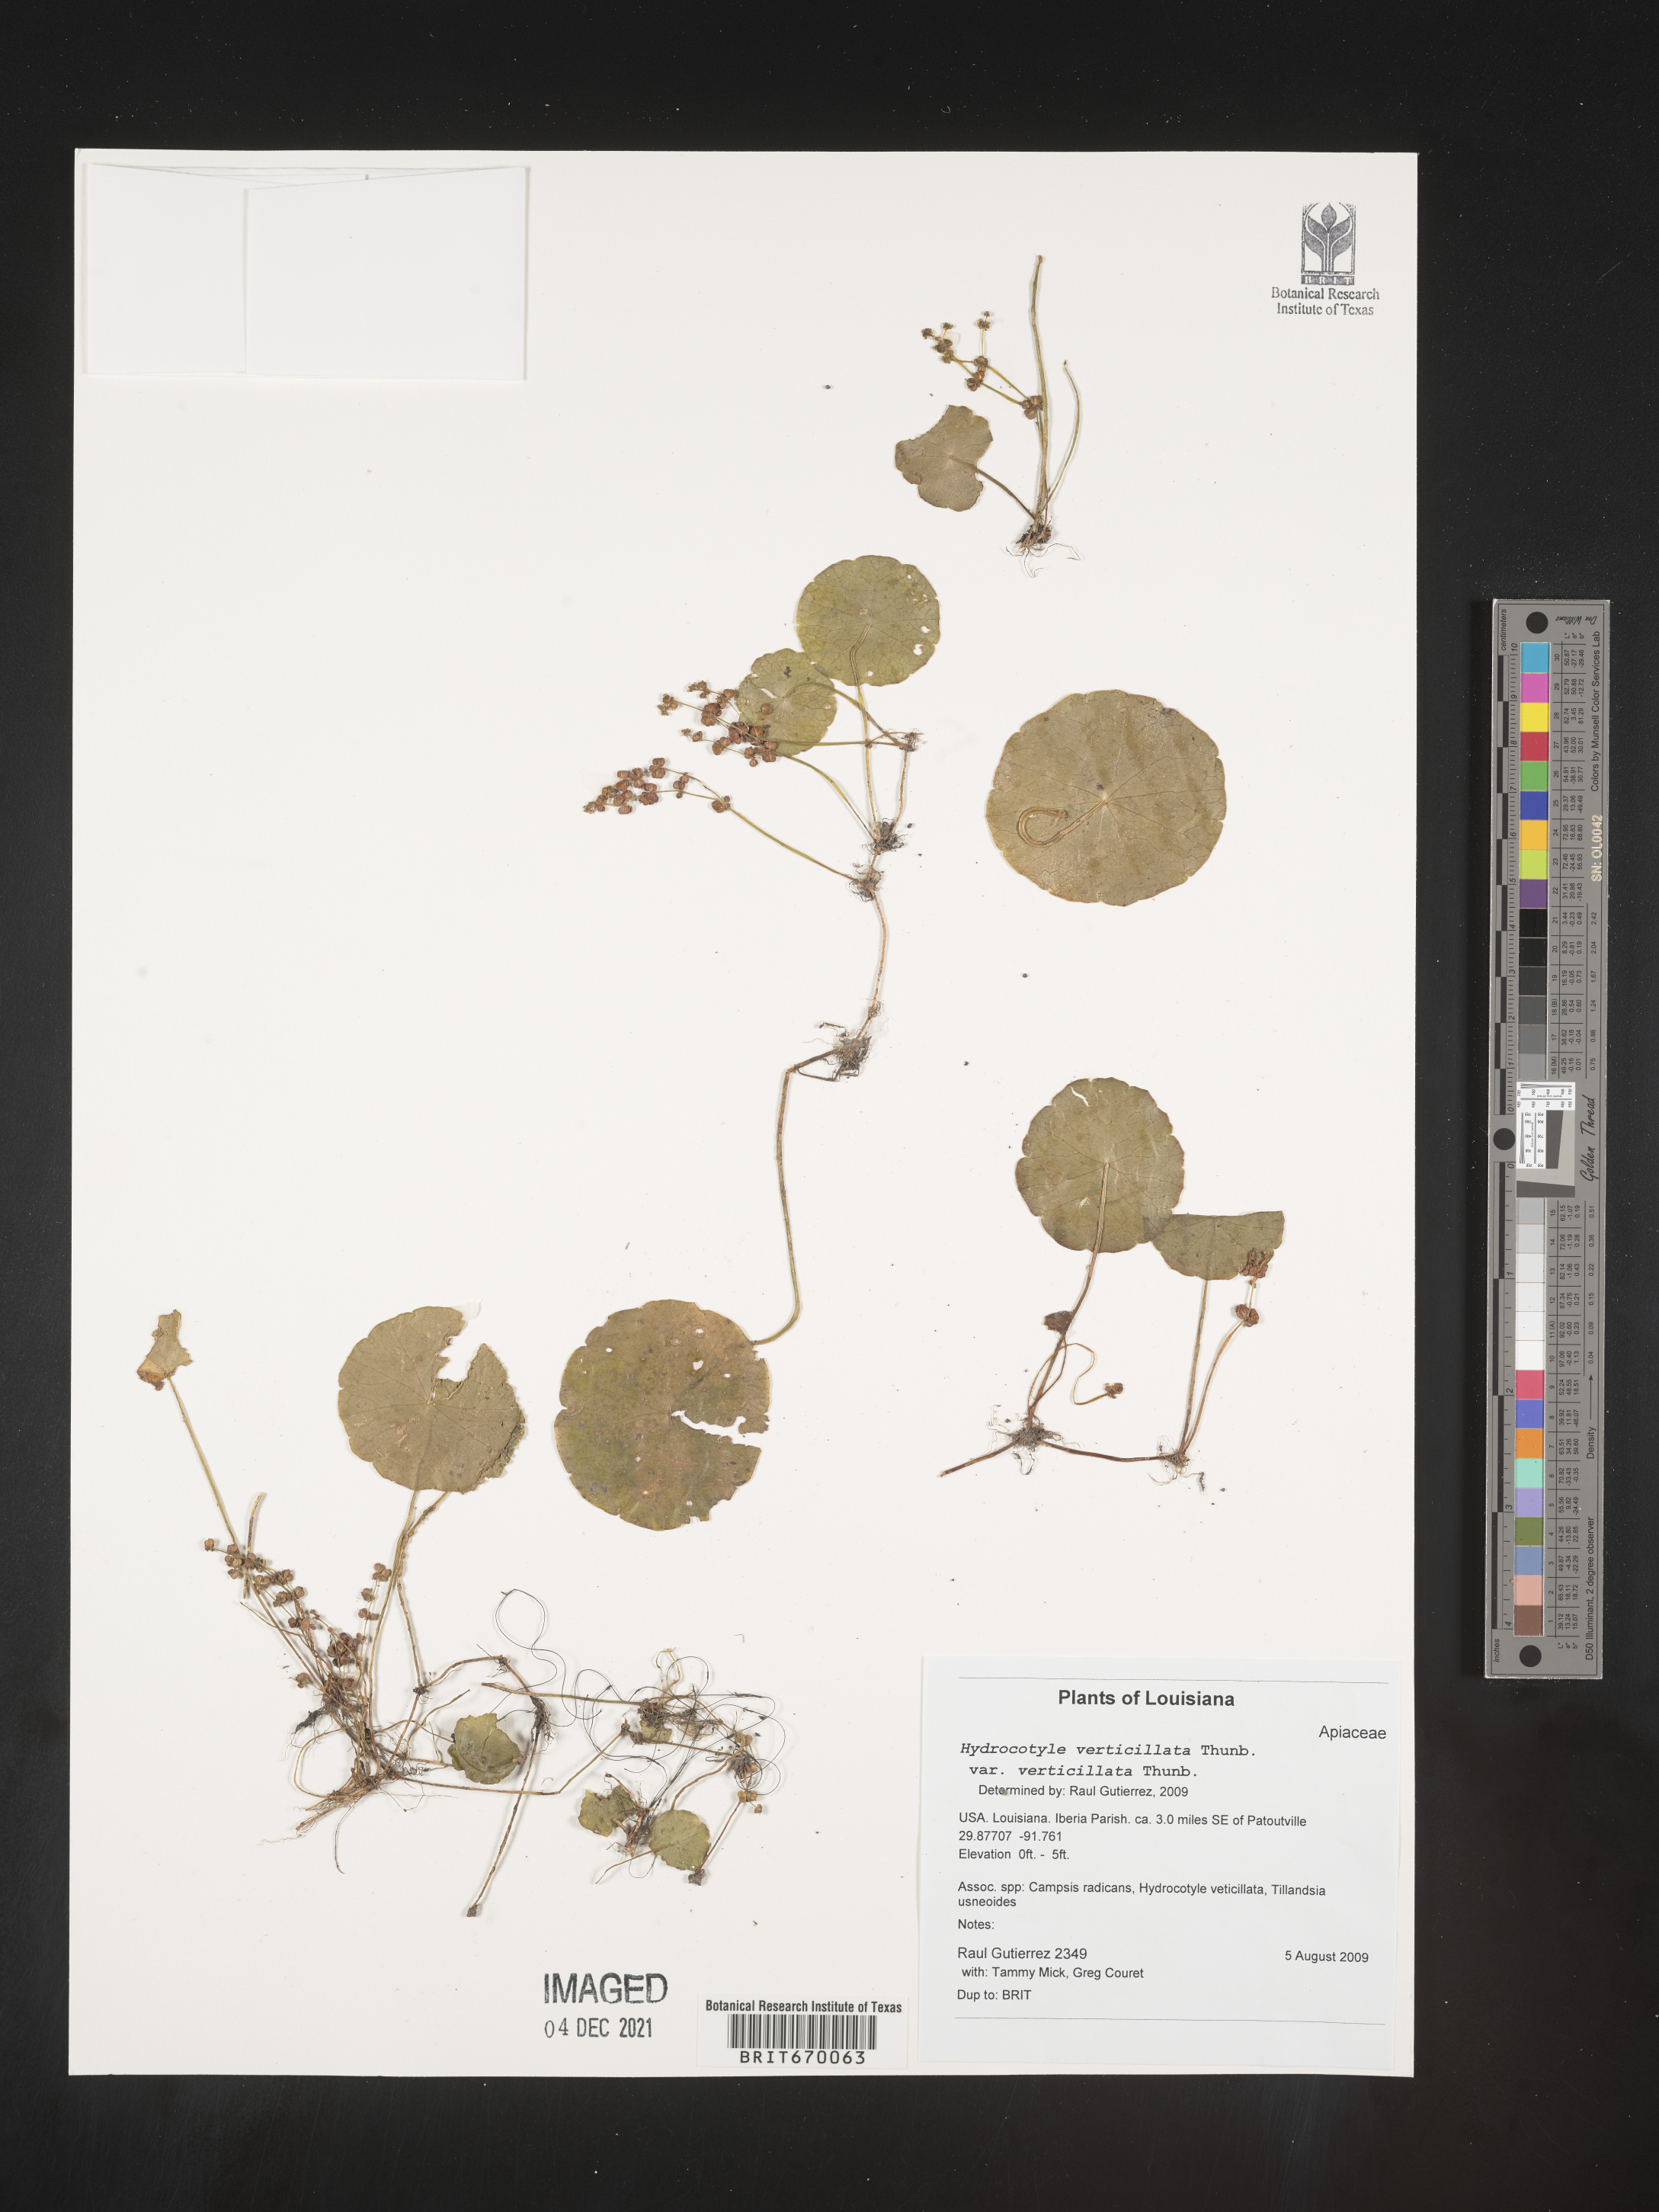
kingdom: Plantae
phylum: Tracheophyta
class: Magnoliopsida
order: Apiales
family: Araliaceae
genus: Hydrocotyle
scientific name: Hydrocotyle verticillata
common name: Whorled marshpennywort
